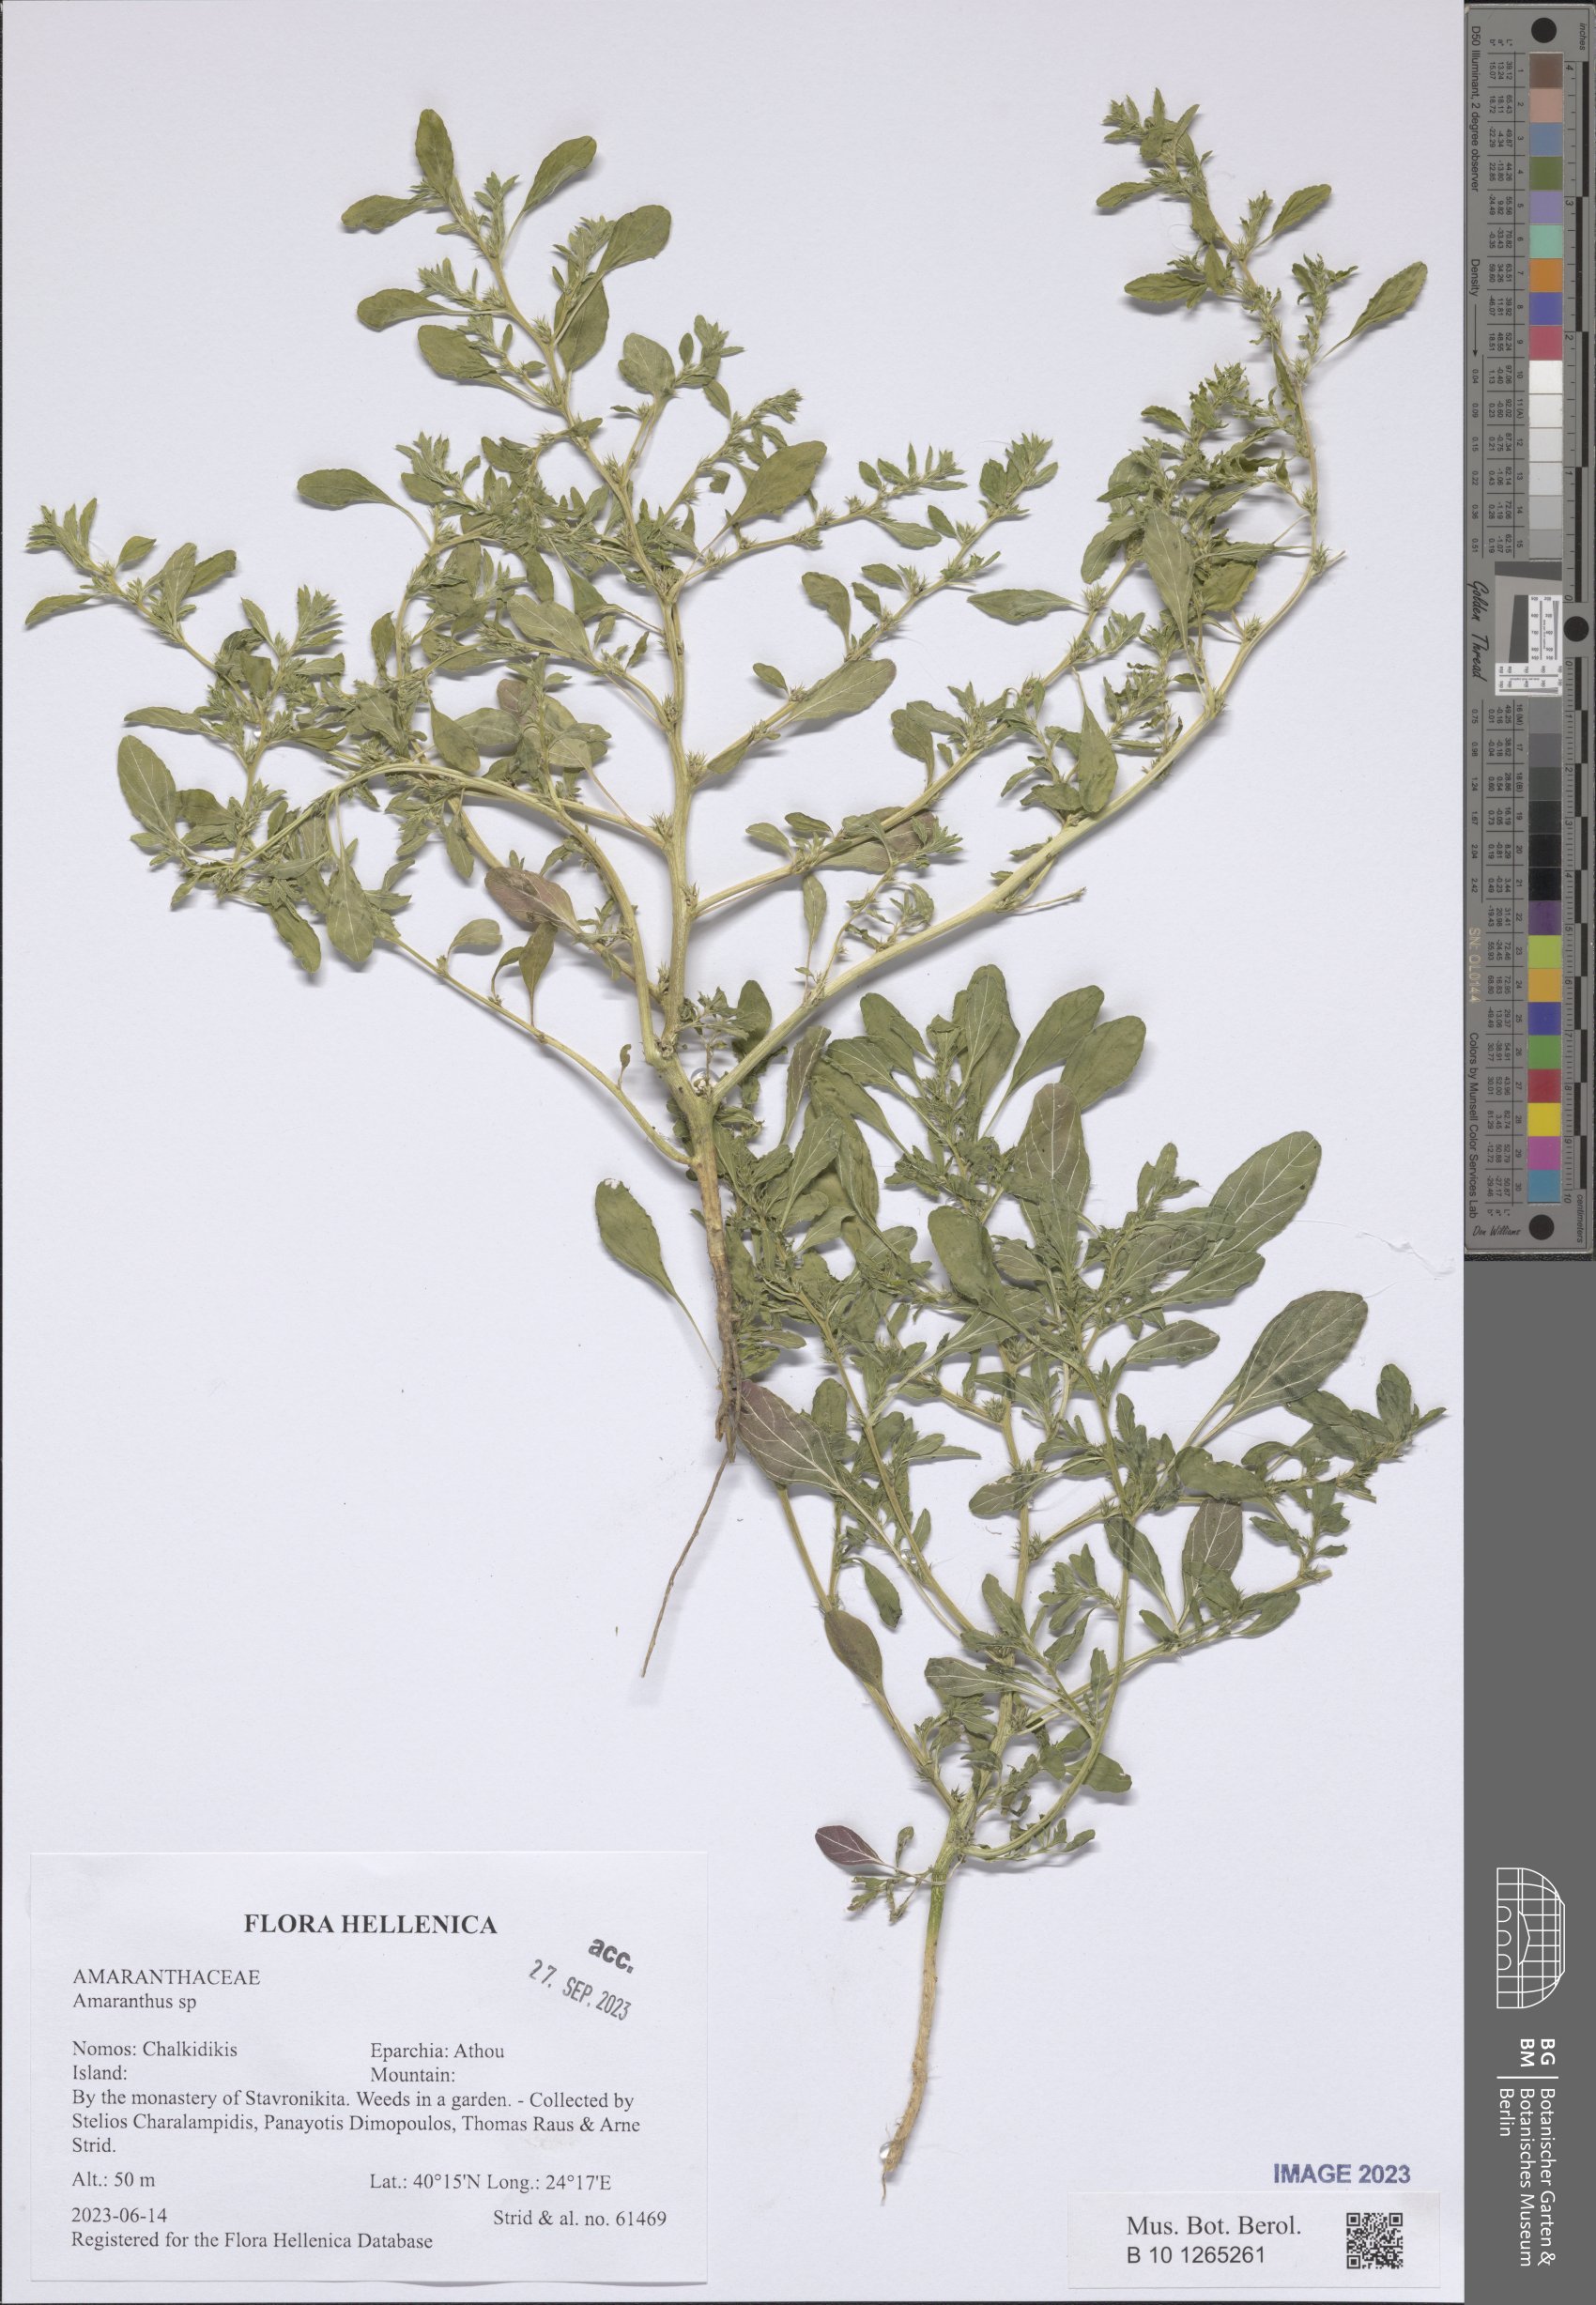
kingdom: Plantae
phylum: Tracheophyta
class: Magnoliopsida
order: Caryophyllales
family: Amaranthaceae
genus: Amaranthus
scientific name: Amaranthus
